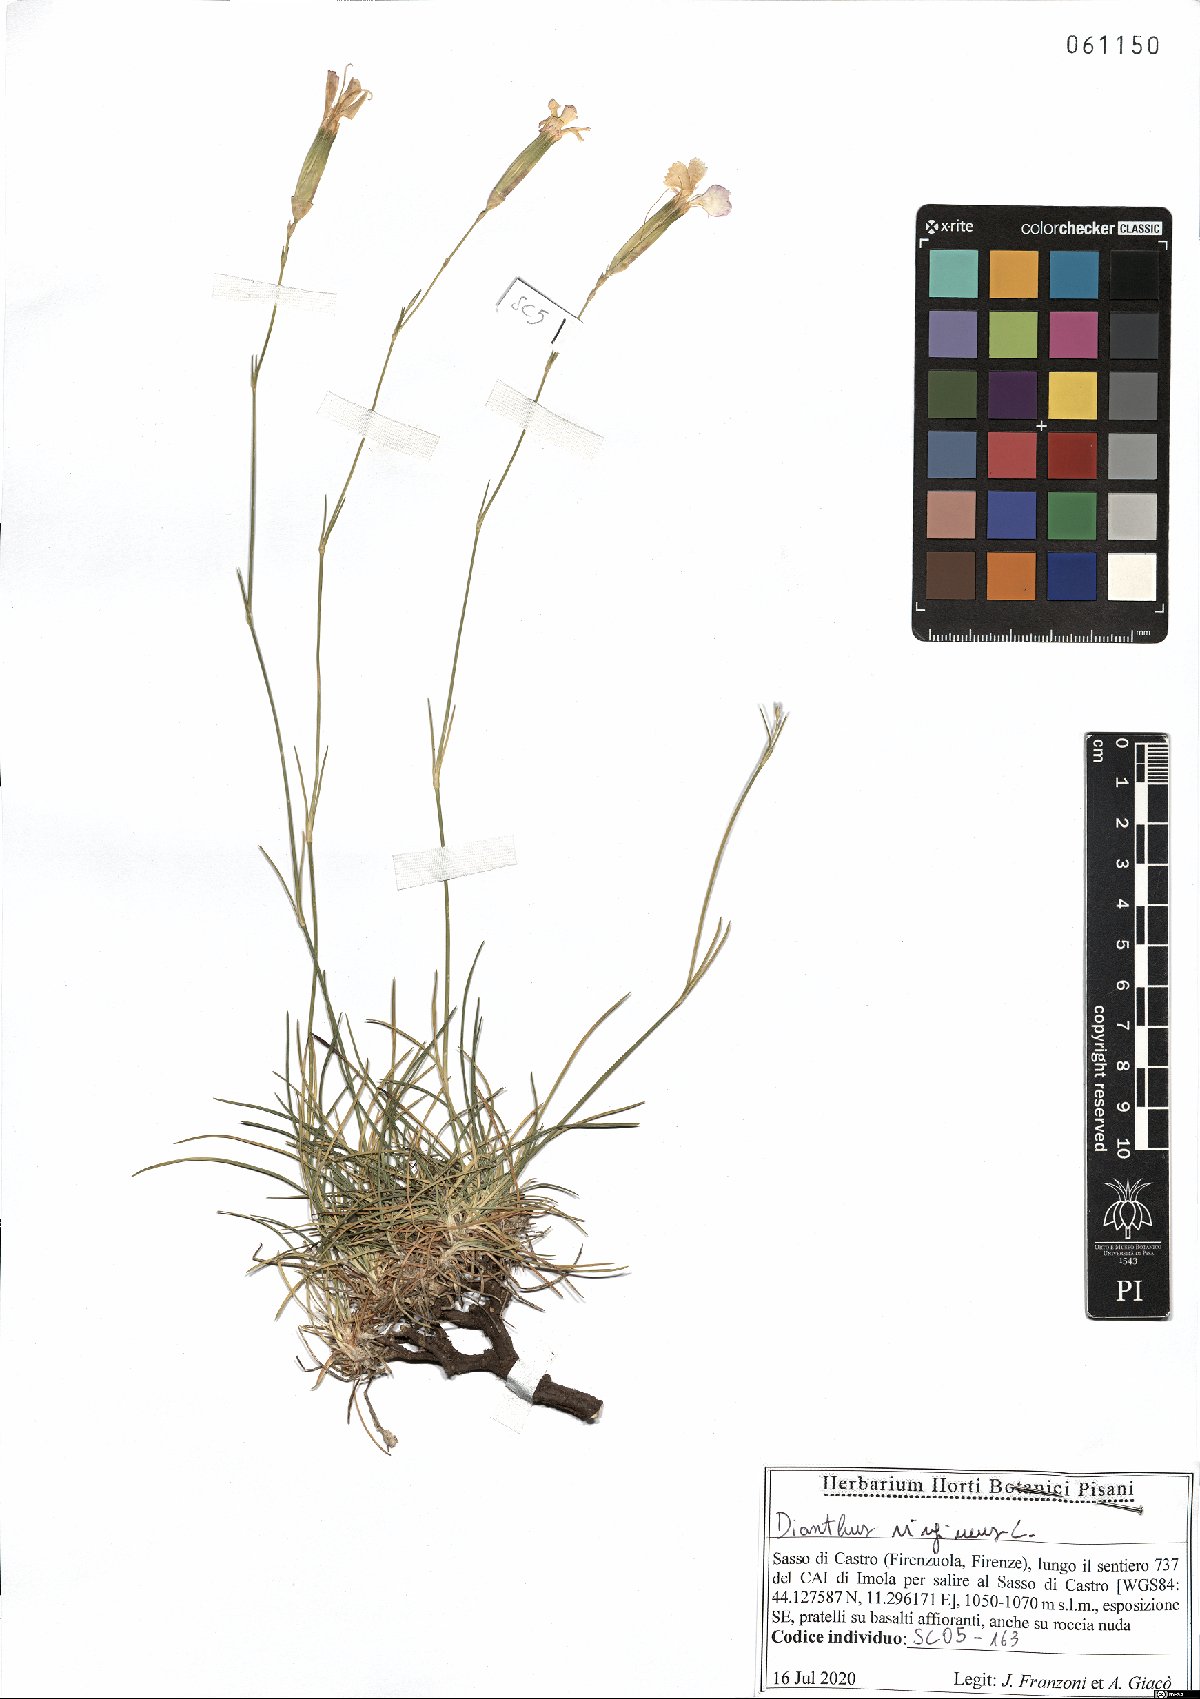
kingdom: Plantae
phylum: Tracheophyta
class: Magnoliopsida
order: Caryophyllales
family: Caryophyllaceae
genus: Dianthus
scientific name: Dianthus virgineus
